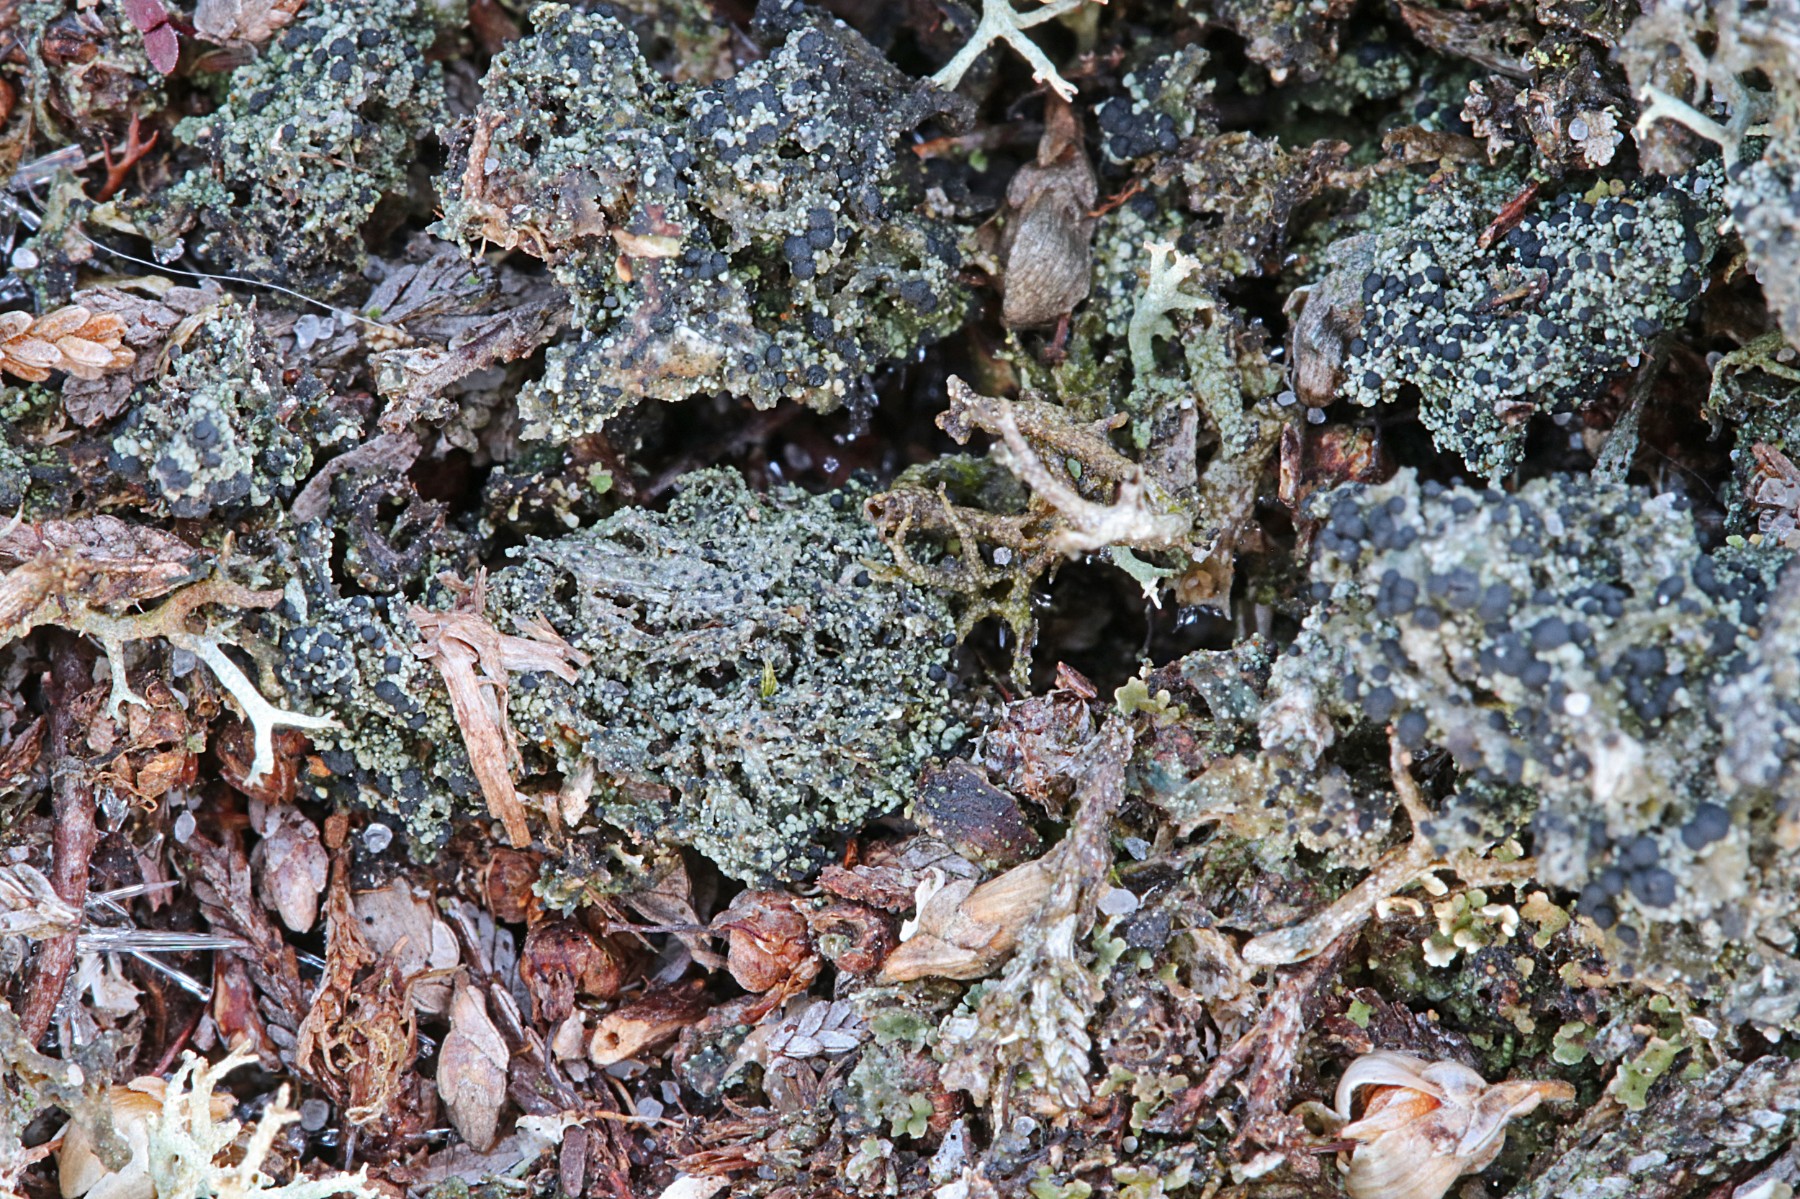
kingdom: Fungi
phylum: Ascomycota
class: Lecanoromycetes
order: Lecanorales
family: Byssolomataceae
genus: Micarea
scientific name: Micarea lignaria
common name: tørve-knaplav
